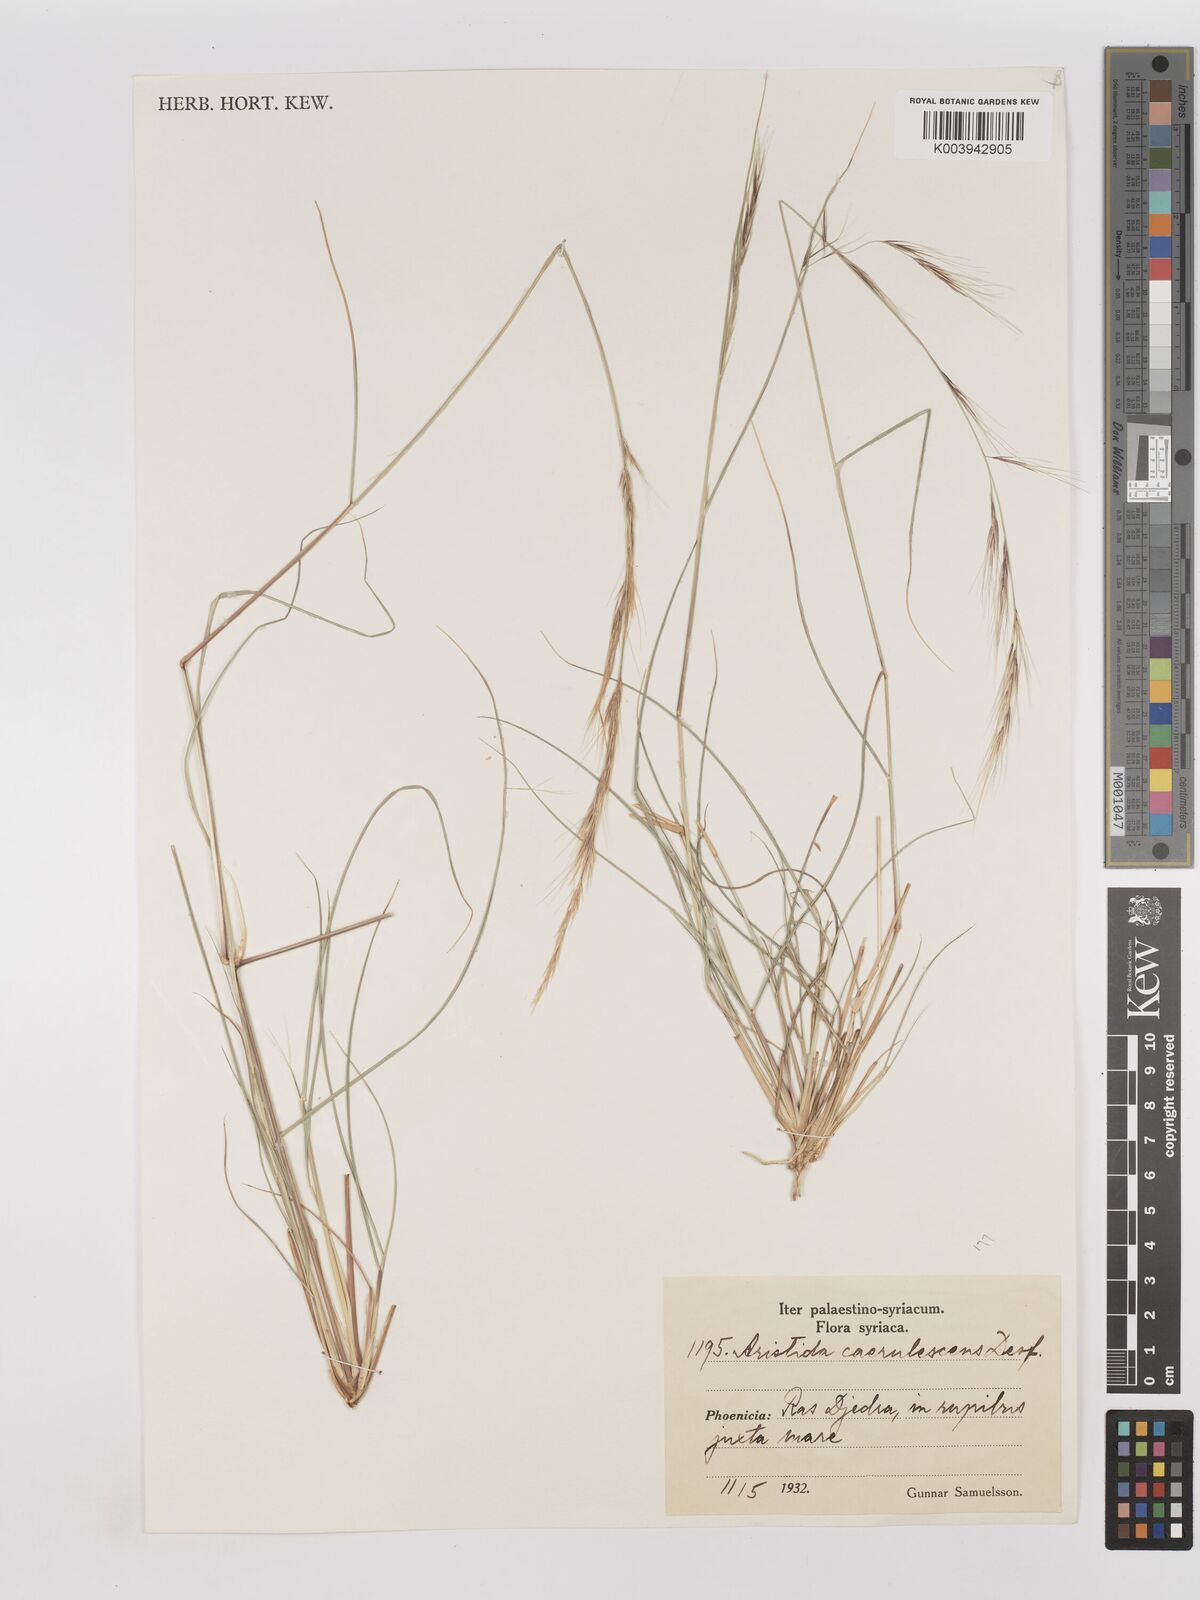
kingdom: Plantae
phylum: Tracheophyta
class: Liliopsida
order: Poales
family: Poaceae
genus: Aristida
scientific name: Aristida adscensionis
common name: Sixweeks threeawn
